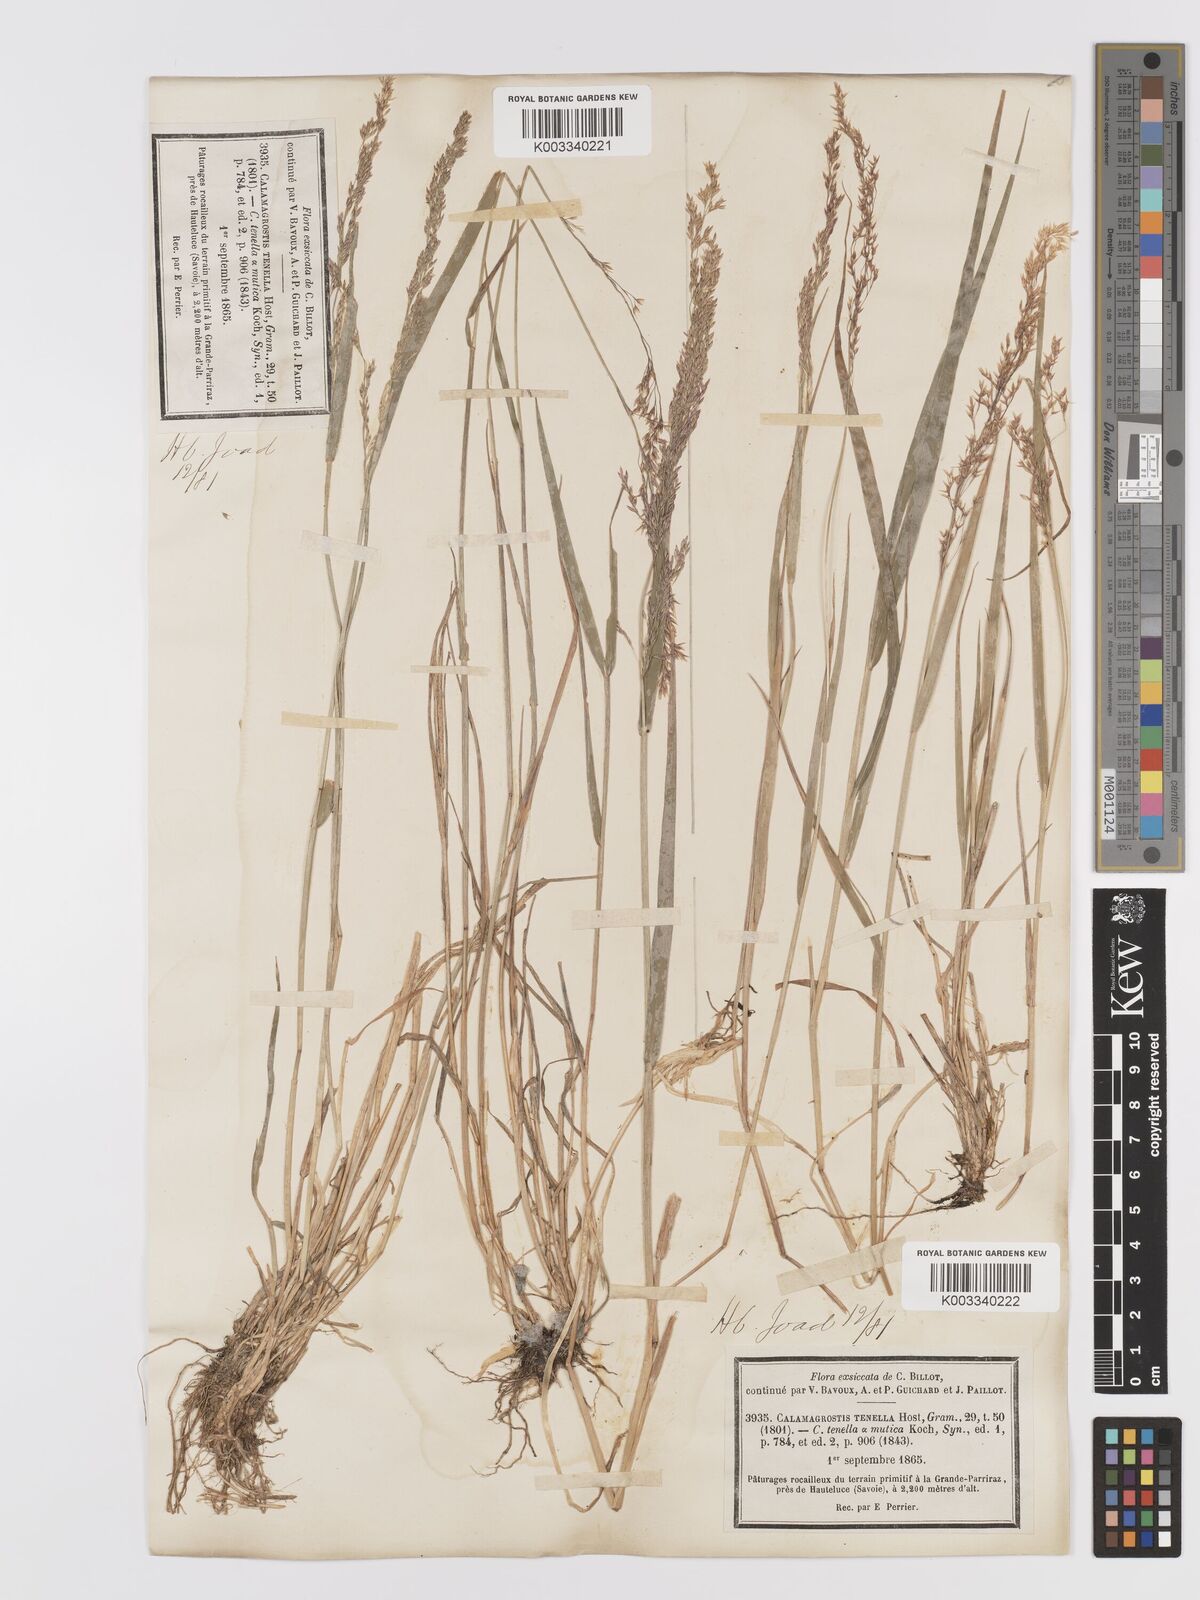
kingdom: Plantae
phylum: Tracheophyta
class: Liliopsida
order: Poales
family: Poaceae
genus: Agrostis
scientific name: Agrostis schraderiana
